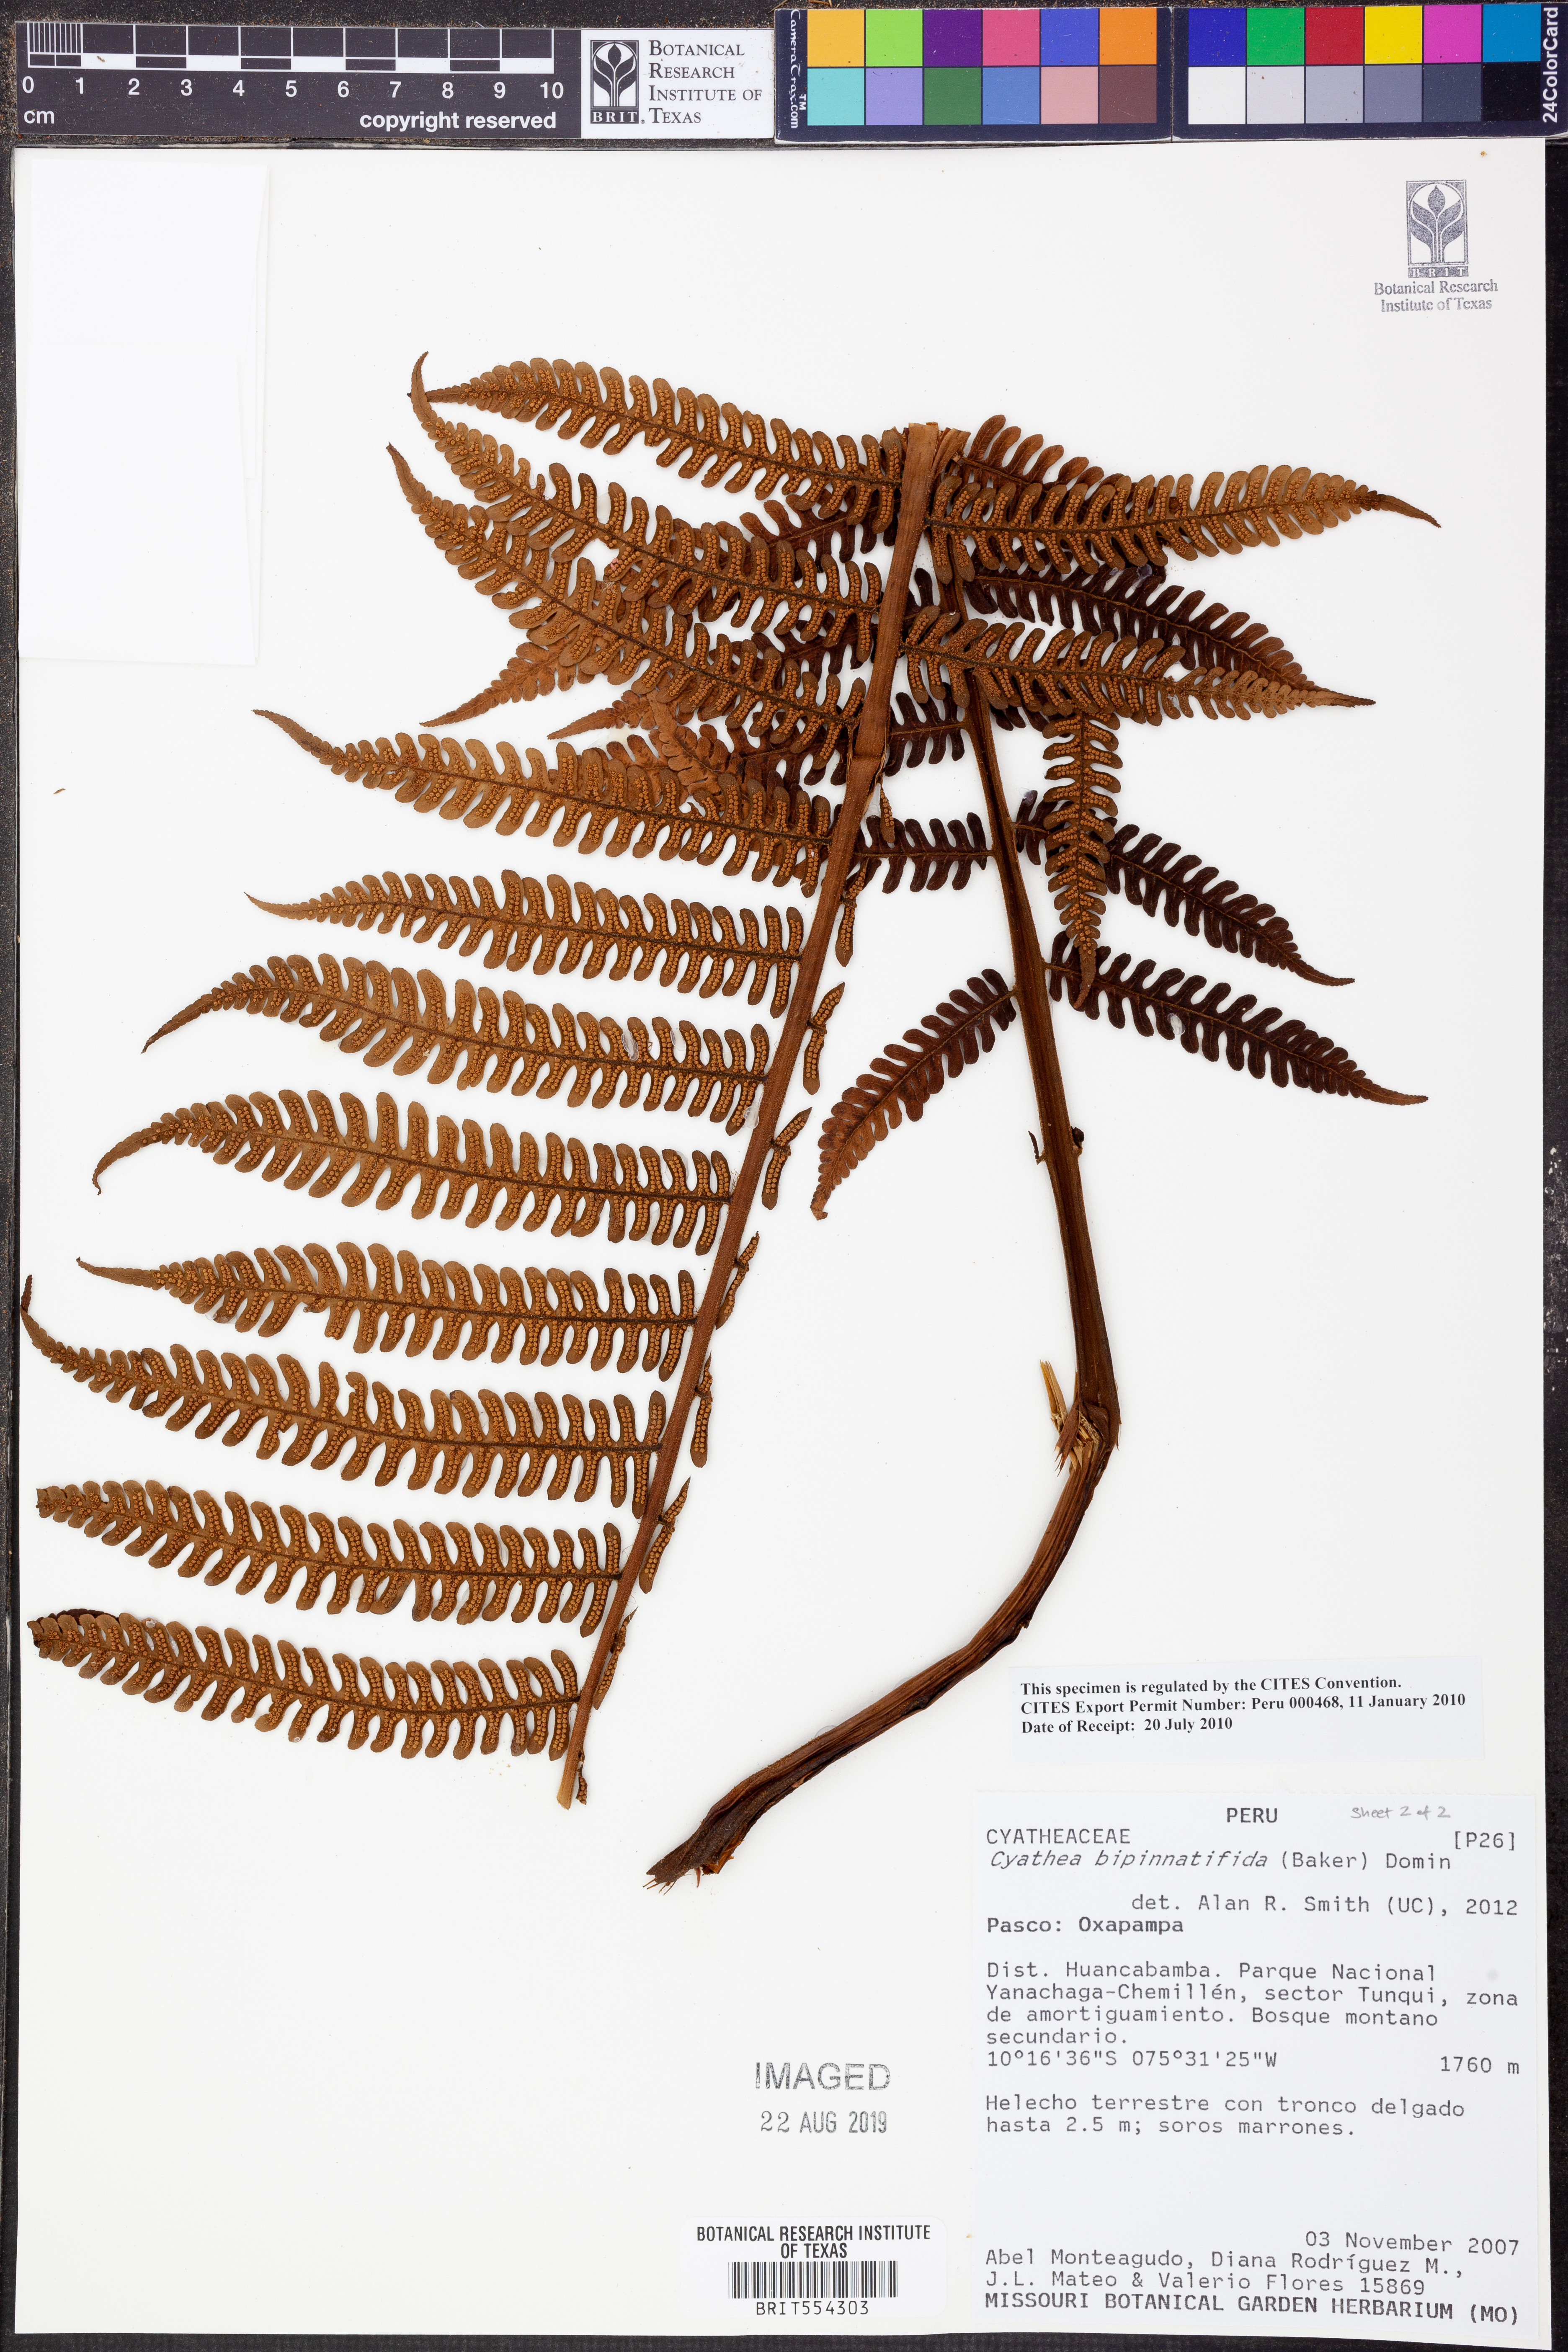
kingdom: Plantae
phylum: Tracheophyta
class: Polypodiopsida
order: Cyatheales
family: Cyatheaceae
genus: Cyathea
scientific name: Cyathea bipinnatifida
